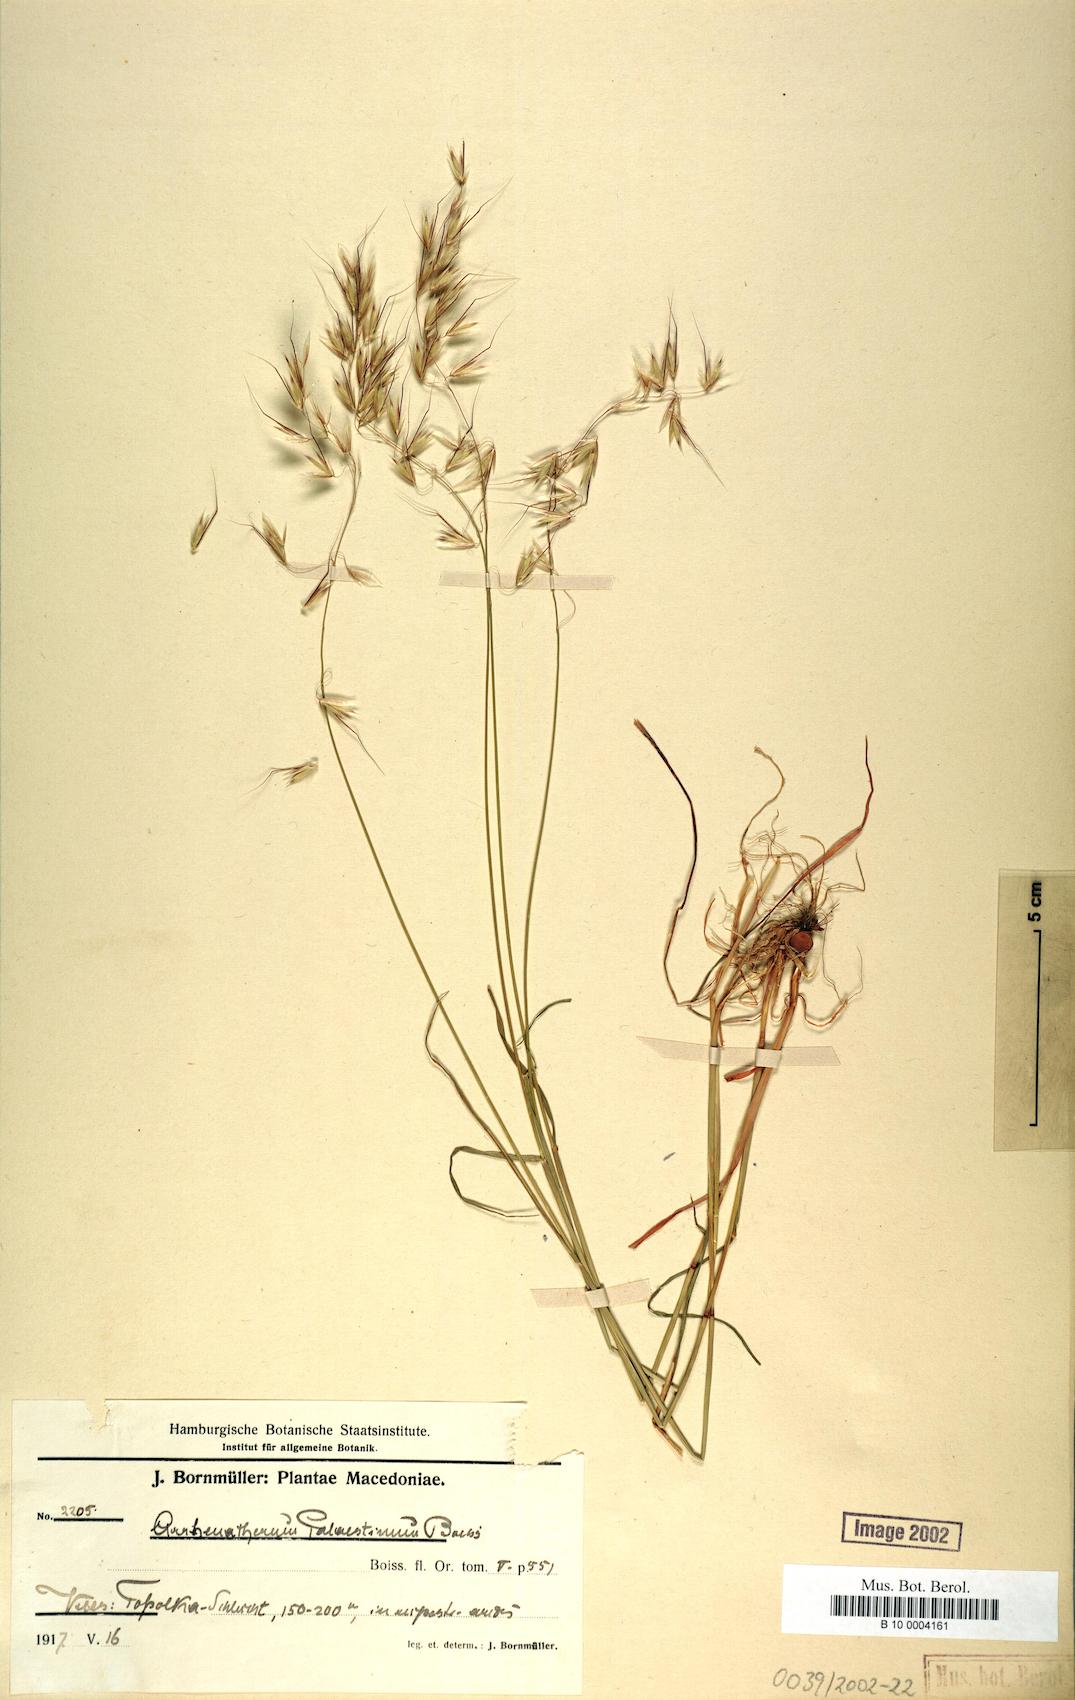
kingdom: Plantae
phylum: Tracheophyta
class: Liliopsida
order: Poales
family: Poaceae
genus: Arrhenatherum
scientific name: Arrhenatherum palaestinum
